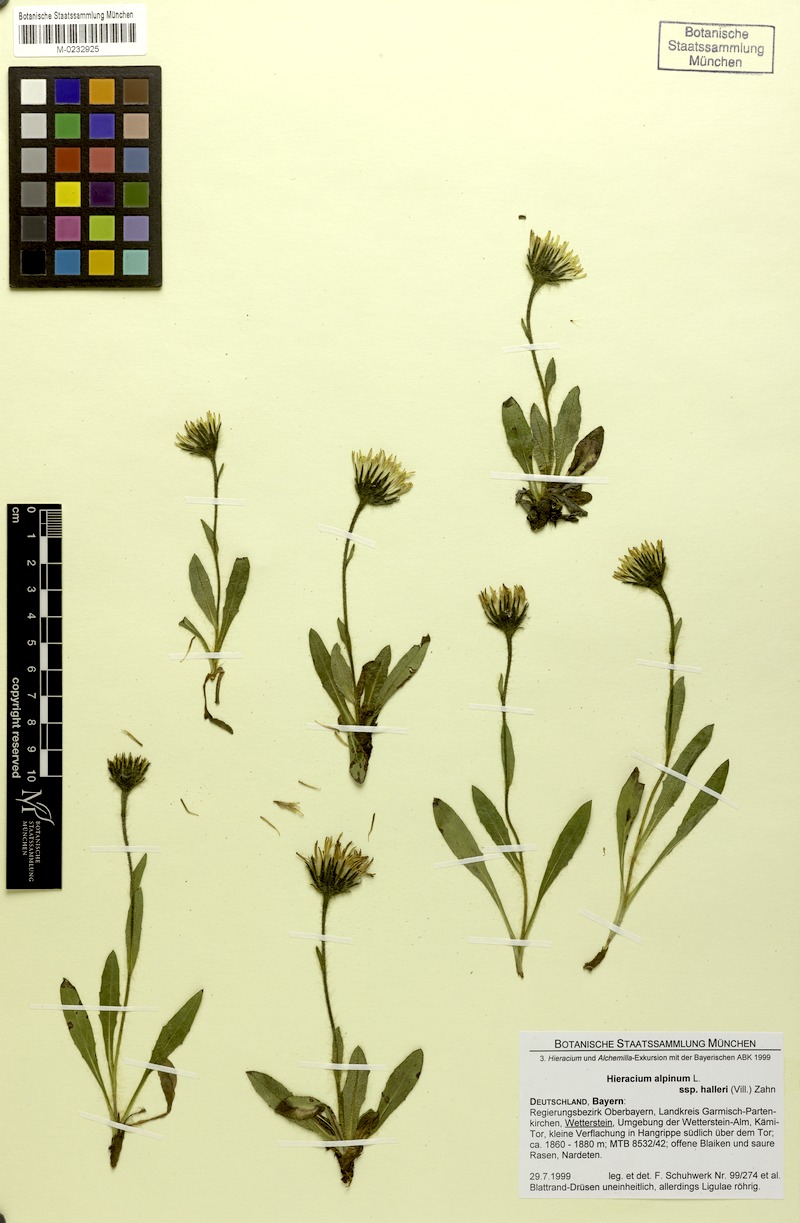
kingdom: Plantae
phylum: Tracheophyta
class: Magnoliopsida
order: Asterales
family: Asteraceae
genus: Hieracium
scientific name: Hieracium alpinum
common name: Alpine hawkweed
